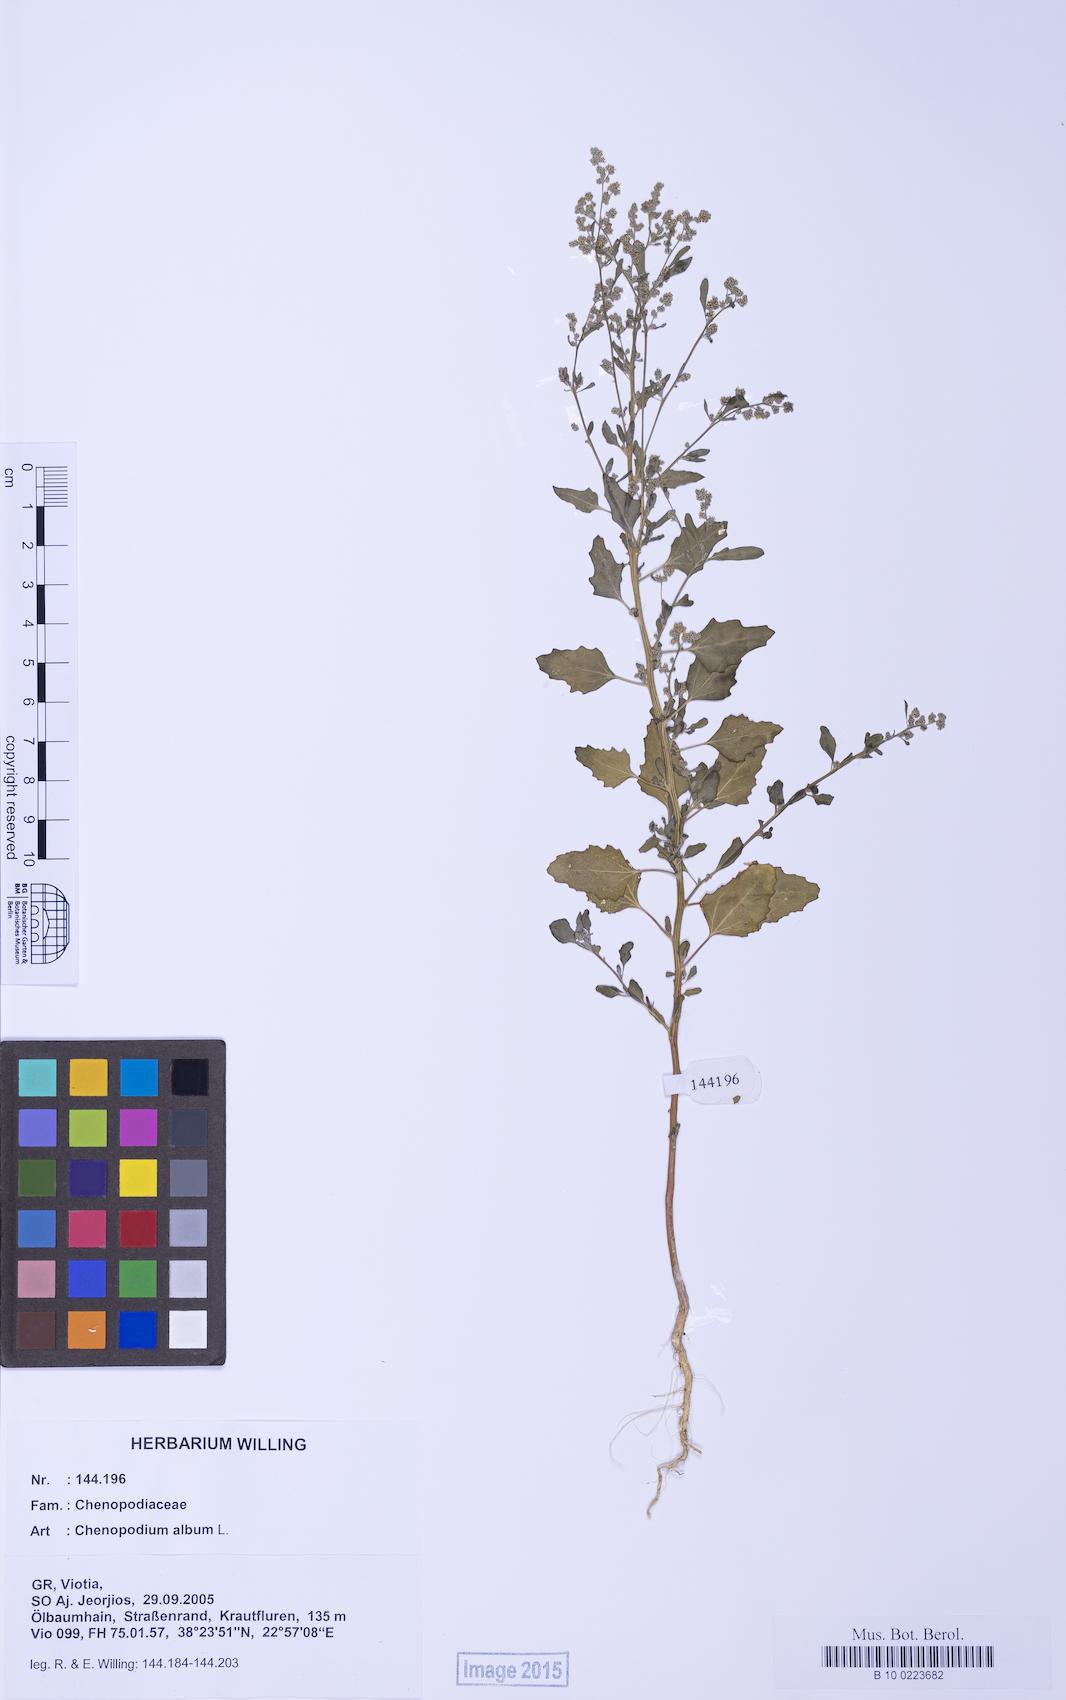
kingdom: Plantae
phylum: Tracheophyta
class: Magnoliopsida
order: Caryophyllales
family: Amaranthaceae
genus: Chenopodium
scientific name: Chenopodium album
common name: Fat-hen
